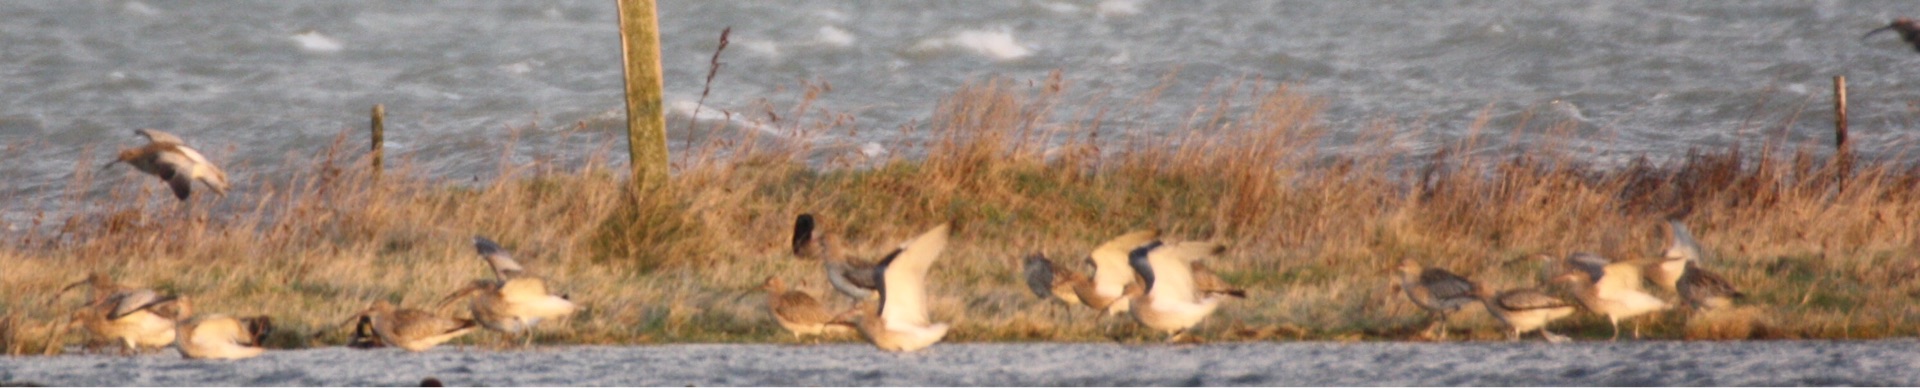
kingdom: Animalia
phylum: Chordata
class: Aves
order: Charadriiformes
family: Scolopacidae
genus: Numenius
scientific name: Numenius arquata
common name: Storspove
